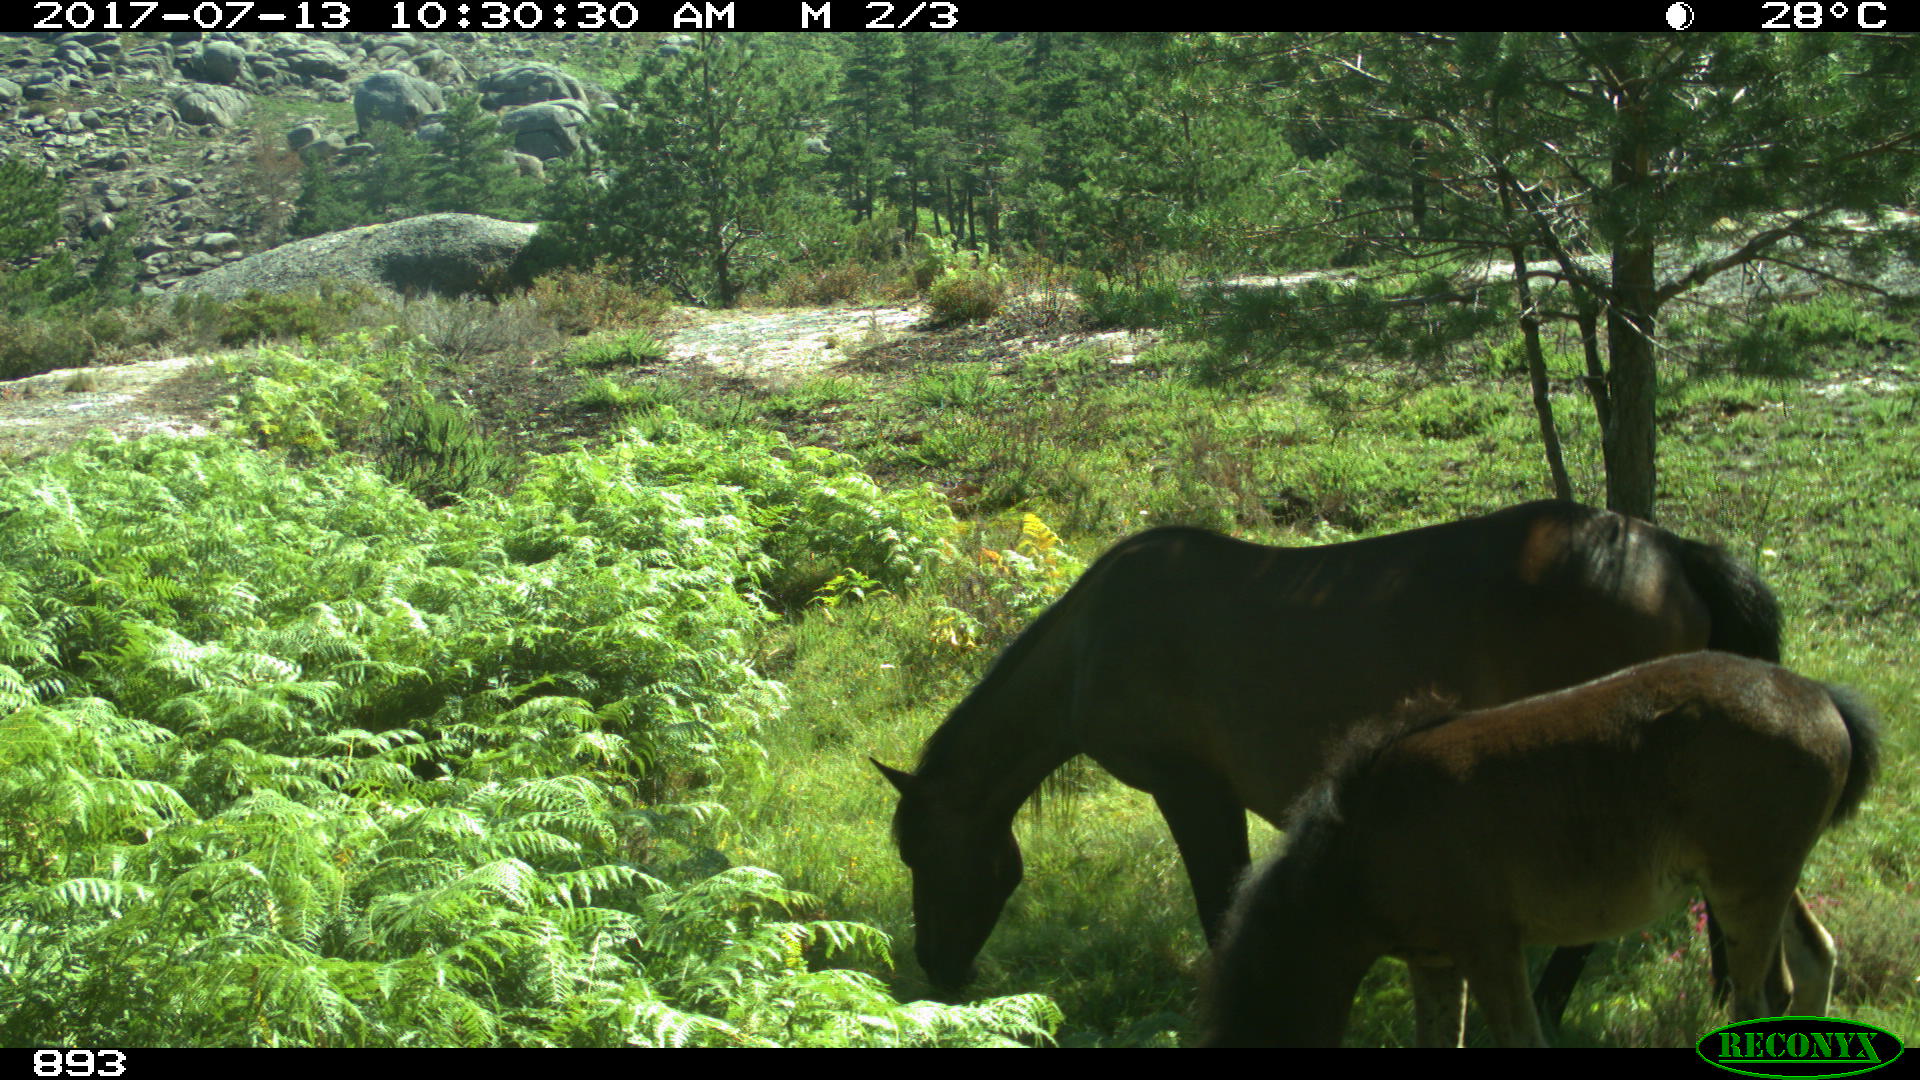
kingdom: Animalia
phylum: Chordata
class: Mammalia
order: Perissodactyla
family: Equidae
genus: Equus
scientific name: Equus caballus
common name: Horse
